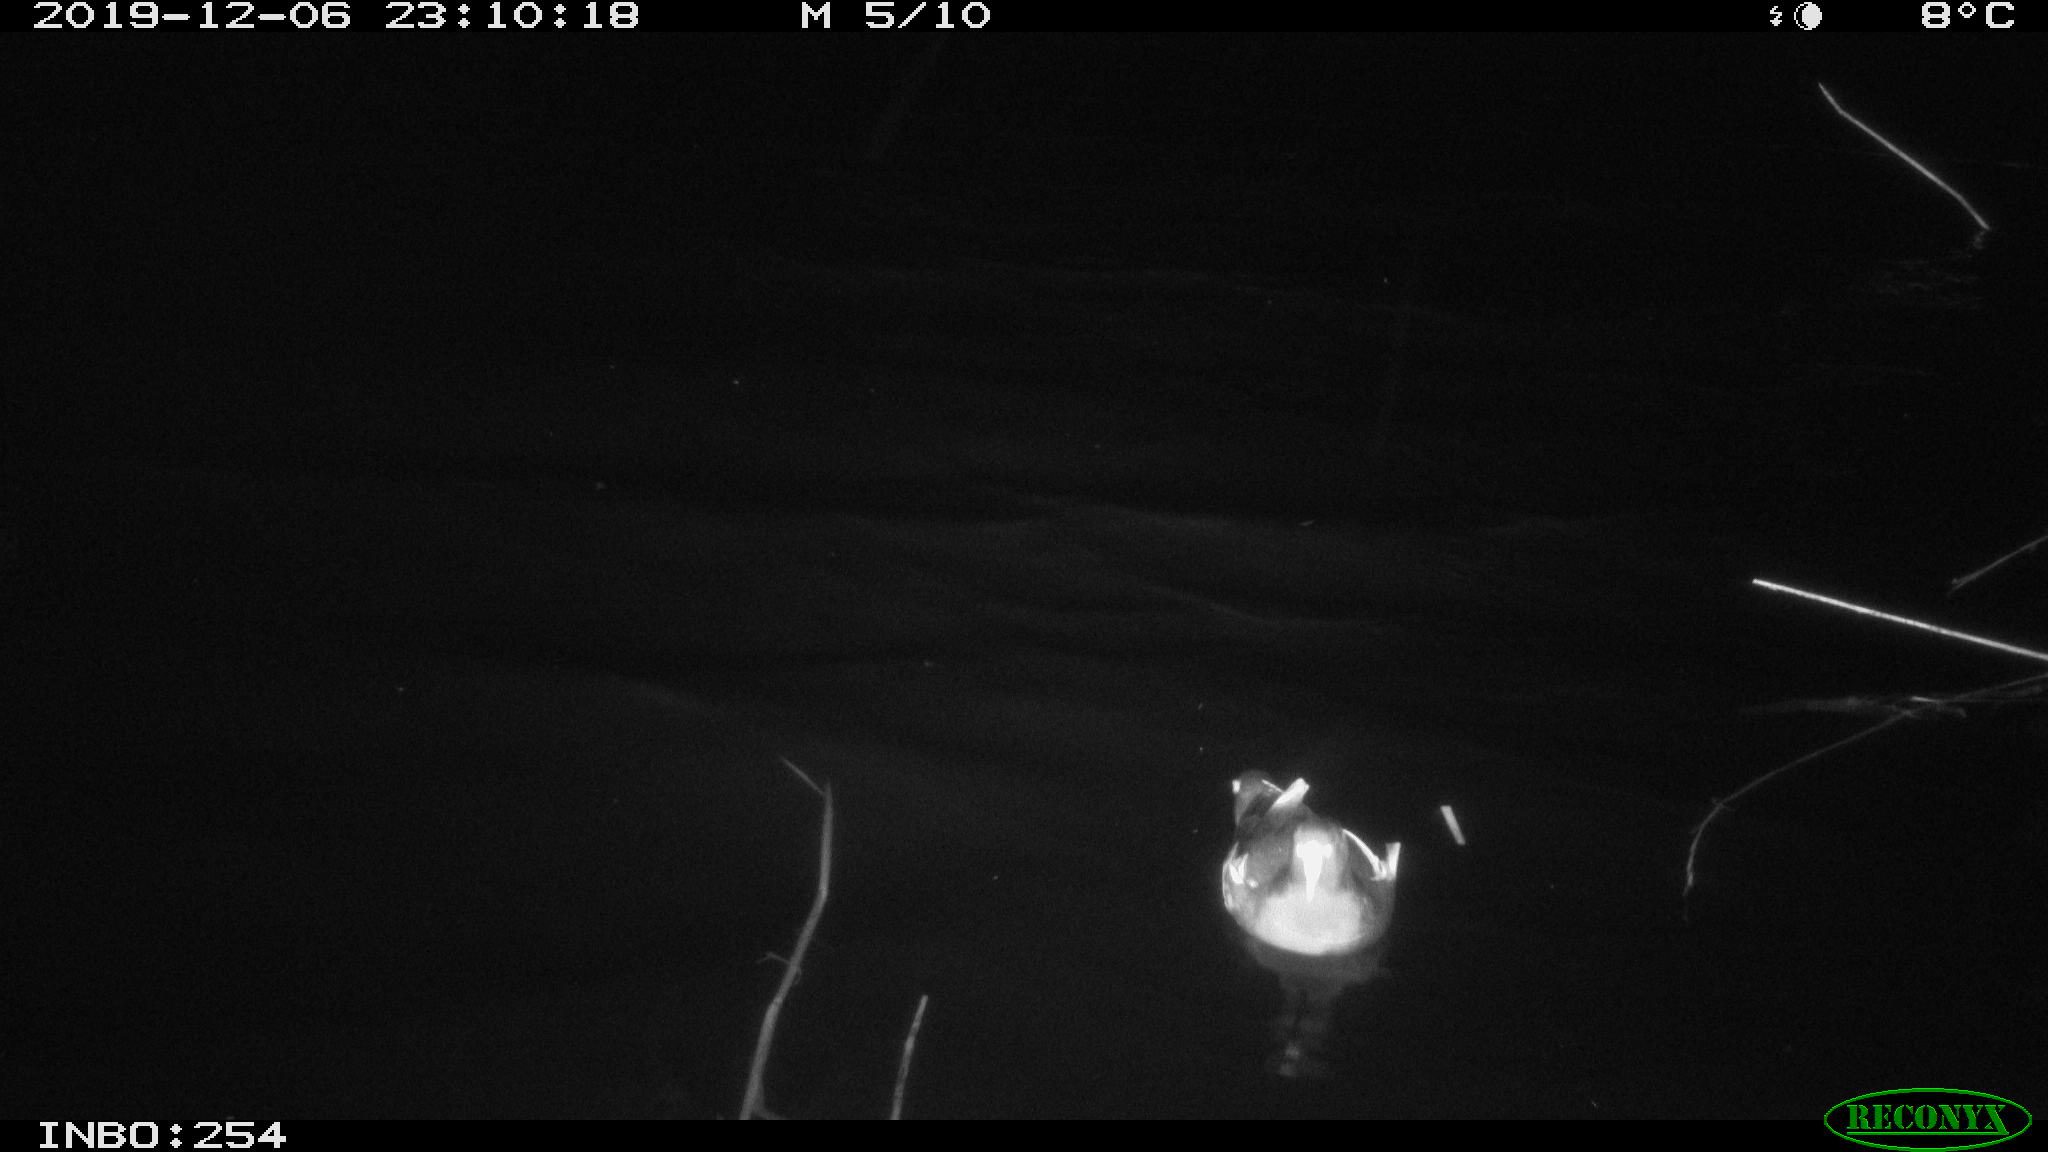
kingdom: Animalia
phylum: Chordata
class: Aves
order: Gruiformes
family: Rallidae
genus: Gallinula
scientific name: Gallinula chloropus
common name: Common moorhen
